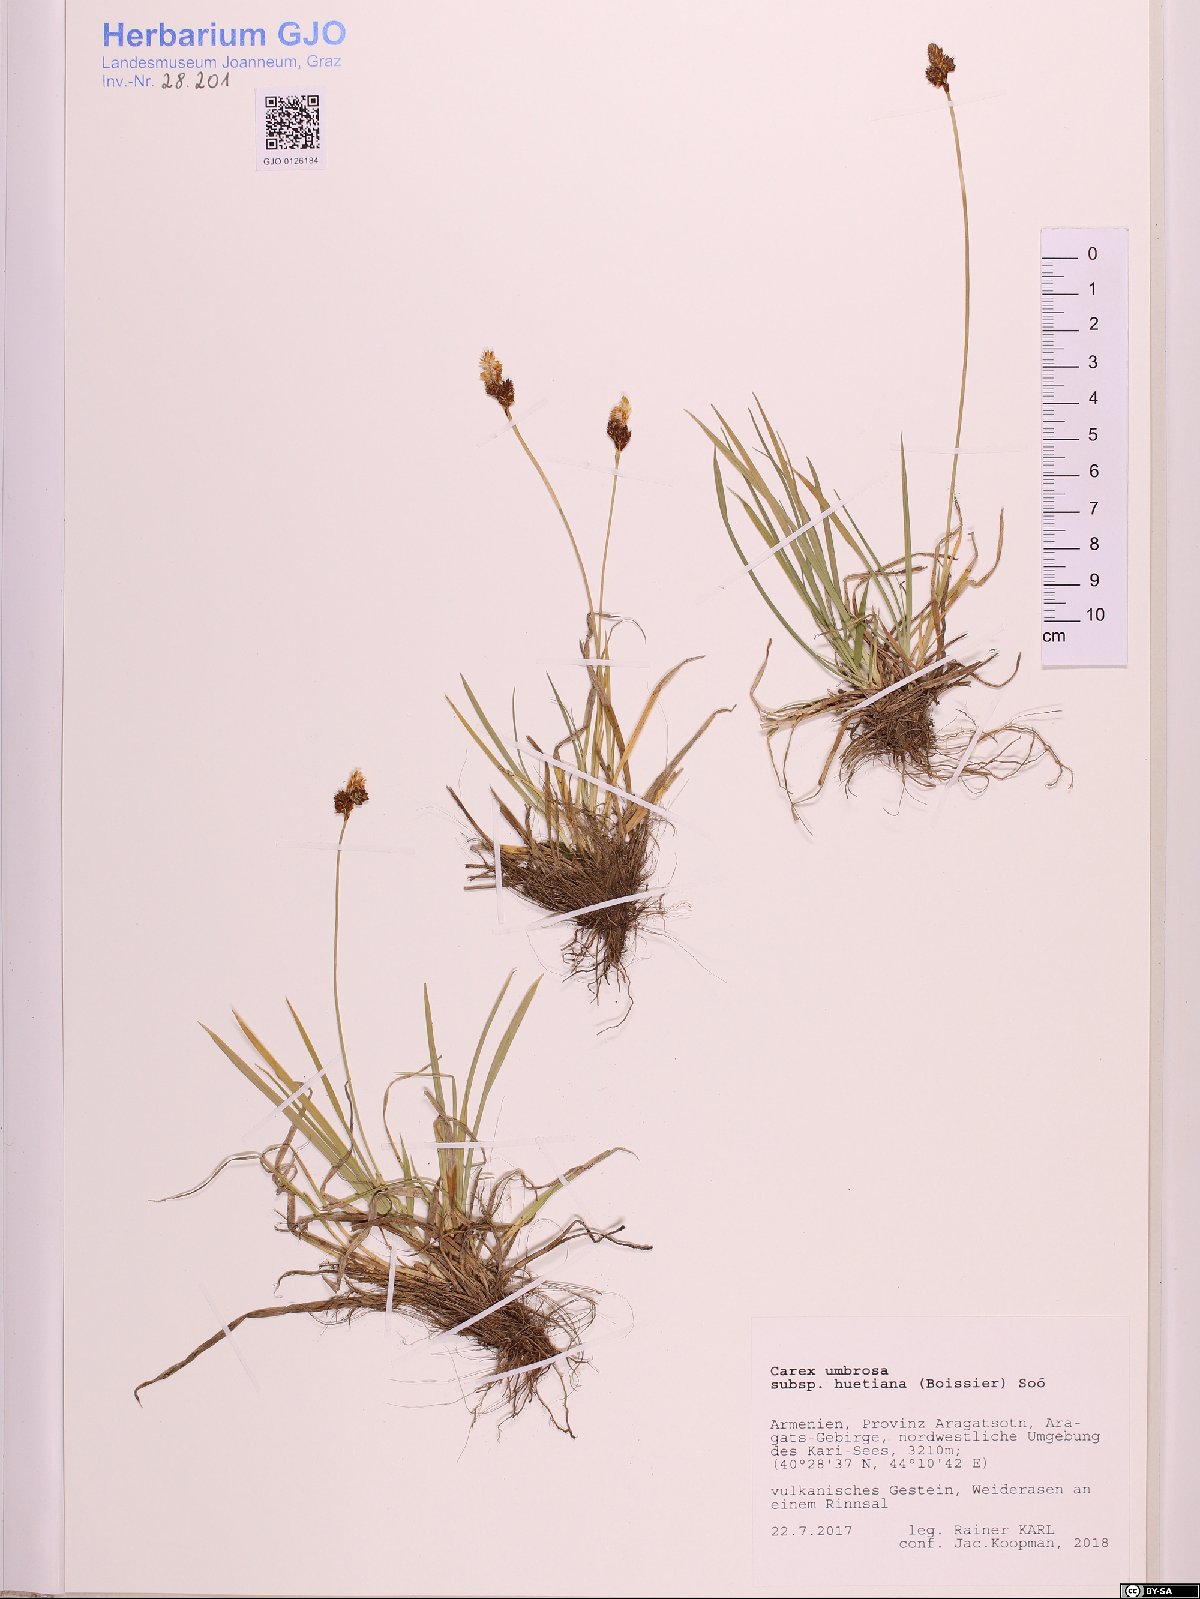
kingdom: Plantae
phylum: Tracheophyta
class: Liliopsida
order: Poales
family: Cyperaceae
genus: Carex
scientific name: Carex umbrosa
